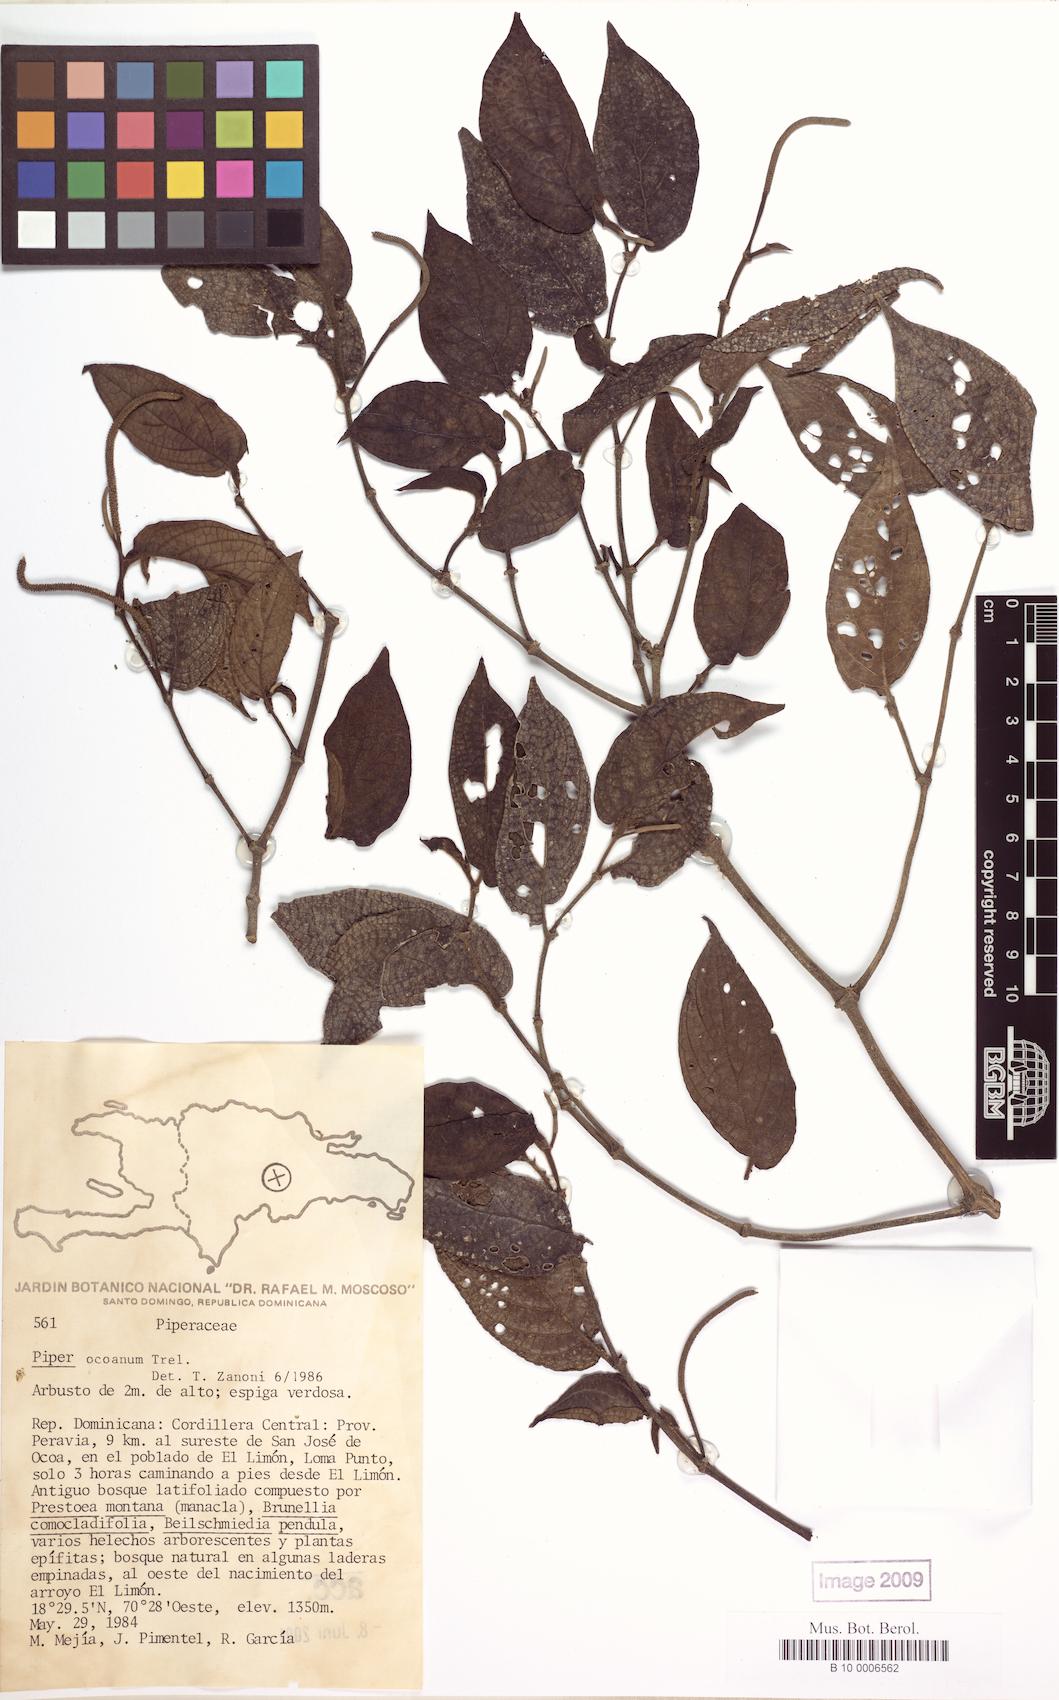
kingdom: Plantae
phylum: Tracheophyta
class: Magnoliopsida
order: Piperales
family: Piperaceae
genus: Piper
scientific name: Piper confusum
